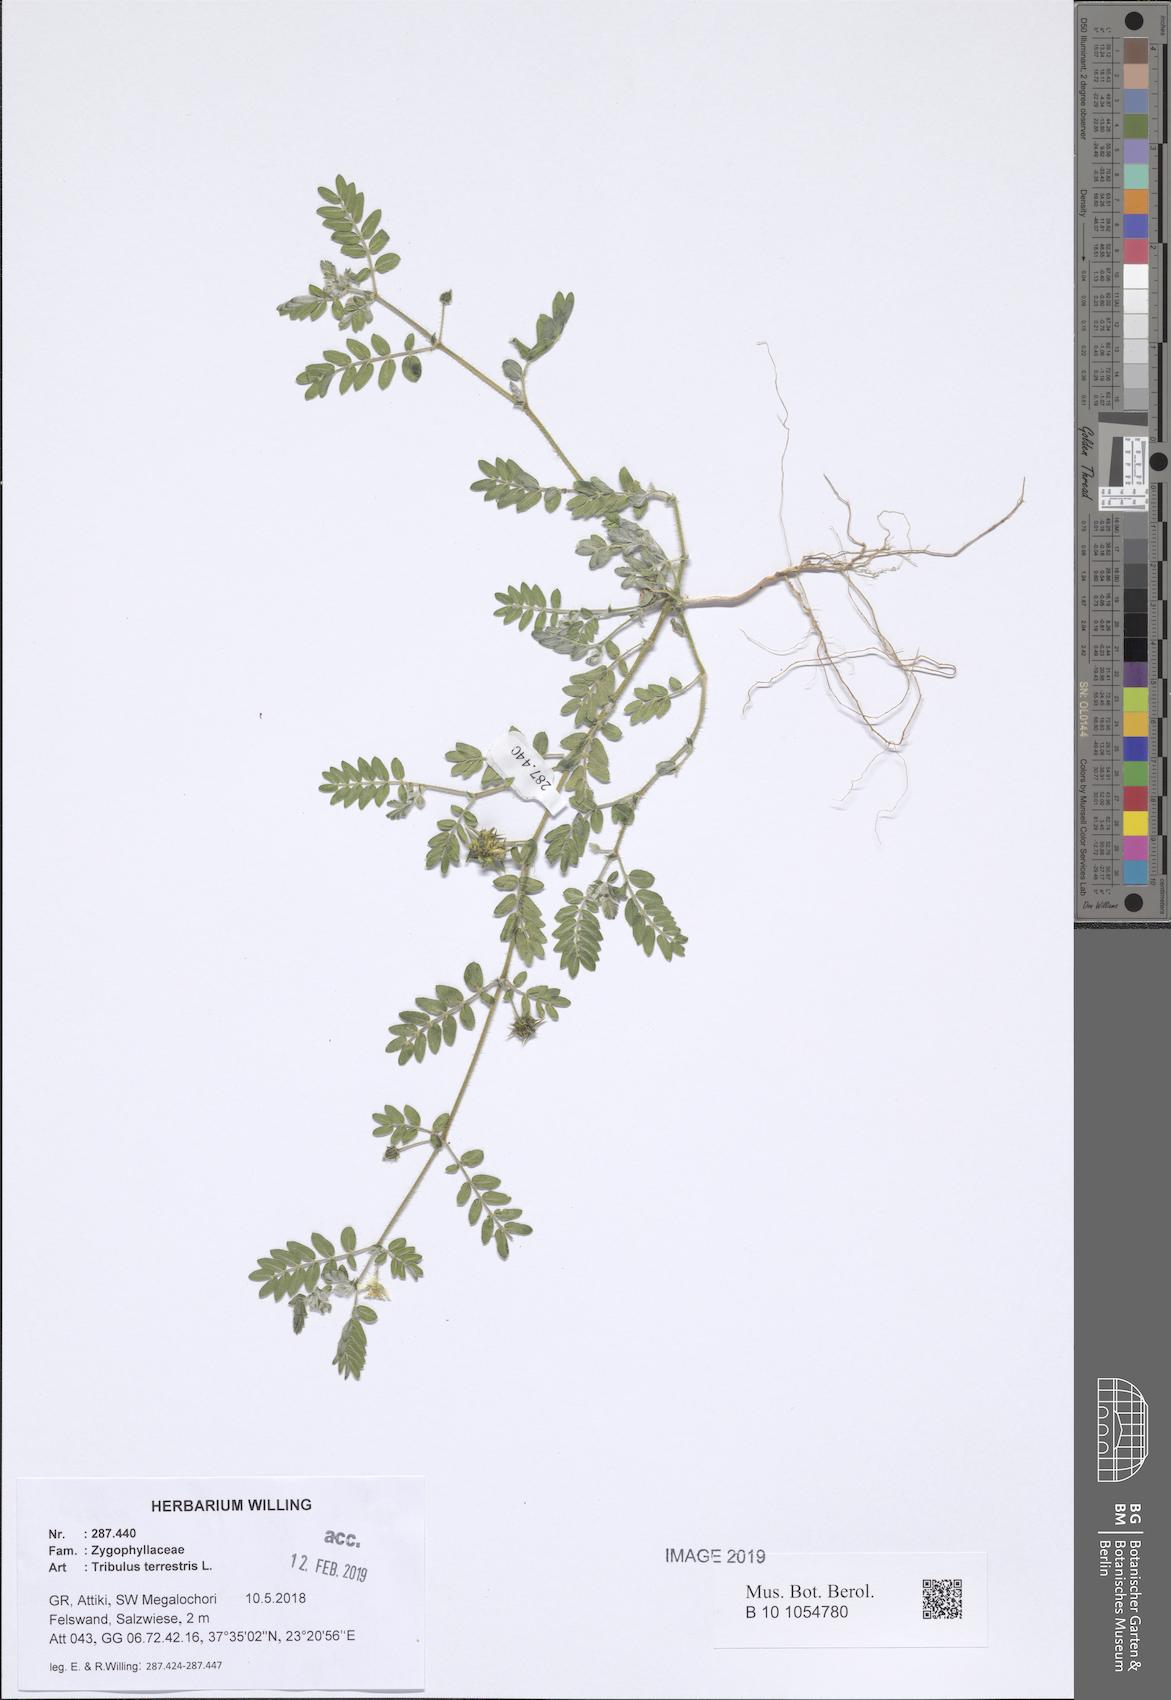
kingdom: Plantae
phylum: Tracheophyta
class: Magnoliopsida
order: Zygophyllales
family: Zygophyllaceae
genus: Tribulus
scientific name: Tribulus terrestris
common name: Puncturevine
